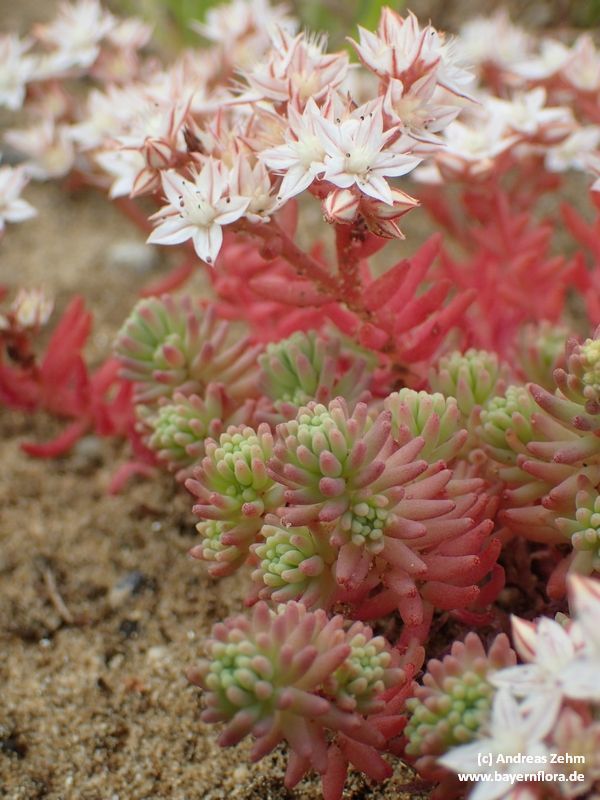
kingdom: Plantae
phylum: Tracheophyta
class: Magnoliopsida
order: Saxifragales
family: Crassulaceae
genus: Sedum
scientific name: Sedum album
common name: White stonecrop
